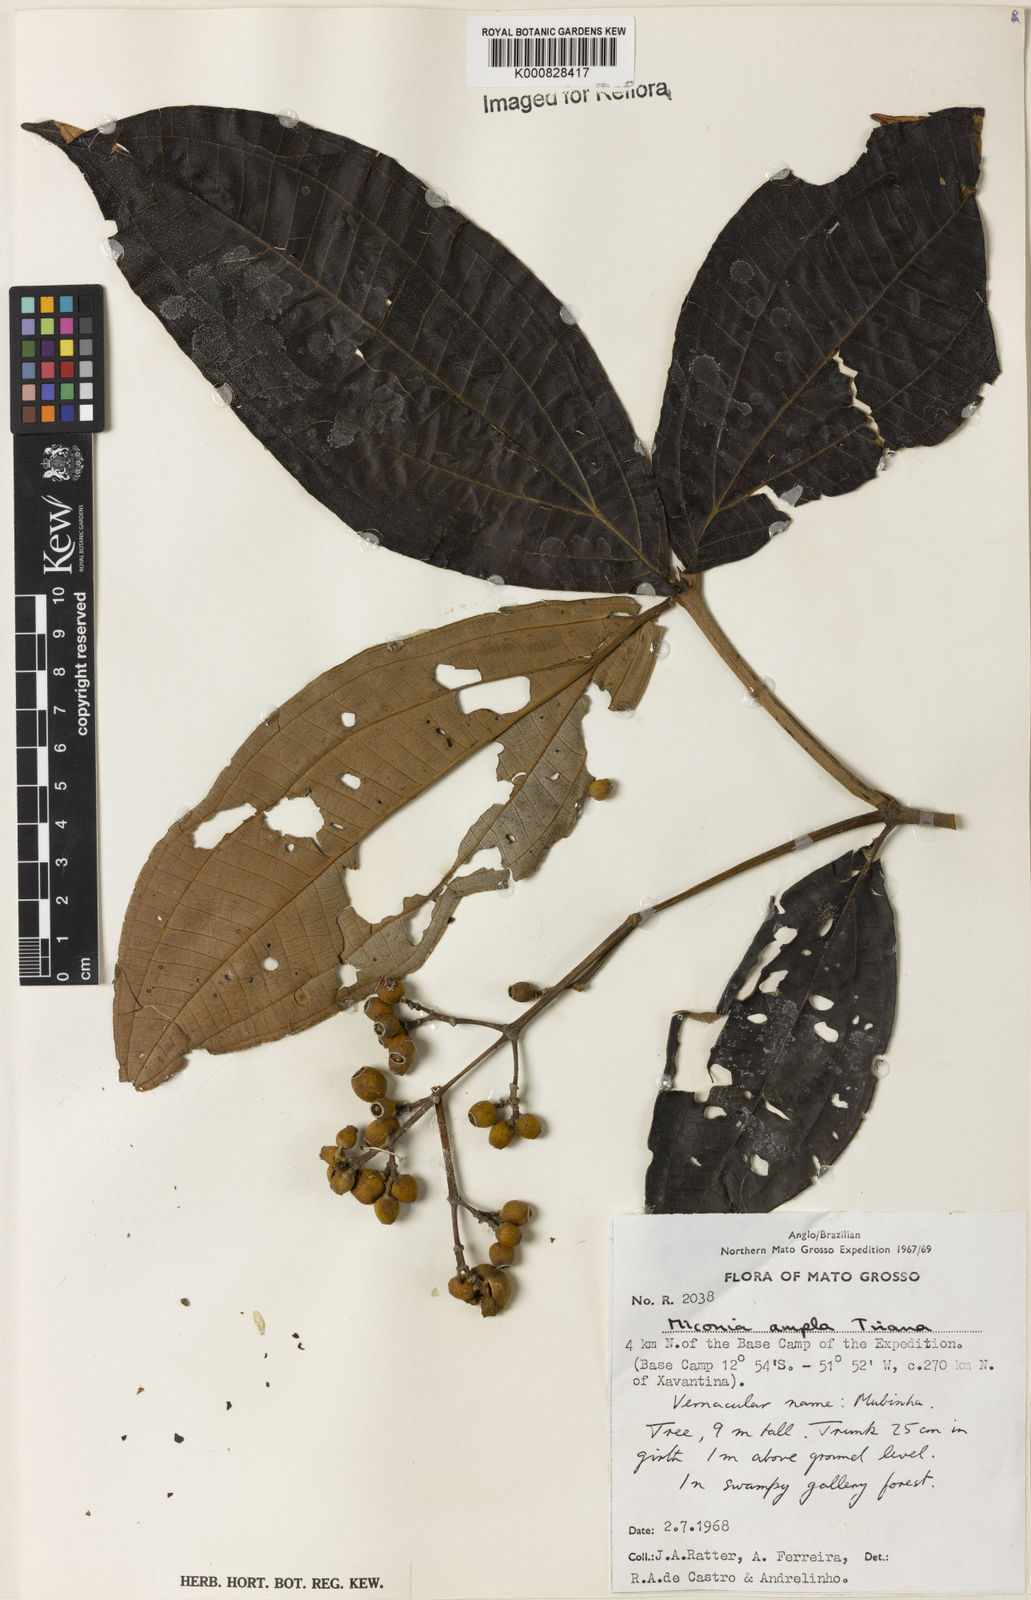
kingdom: Plantae
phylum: Tracheophyta
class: Magnoliopsida
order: Myrtales
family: Melastomataceae
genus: Miconia
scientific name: Miconia ampla
